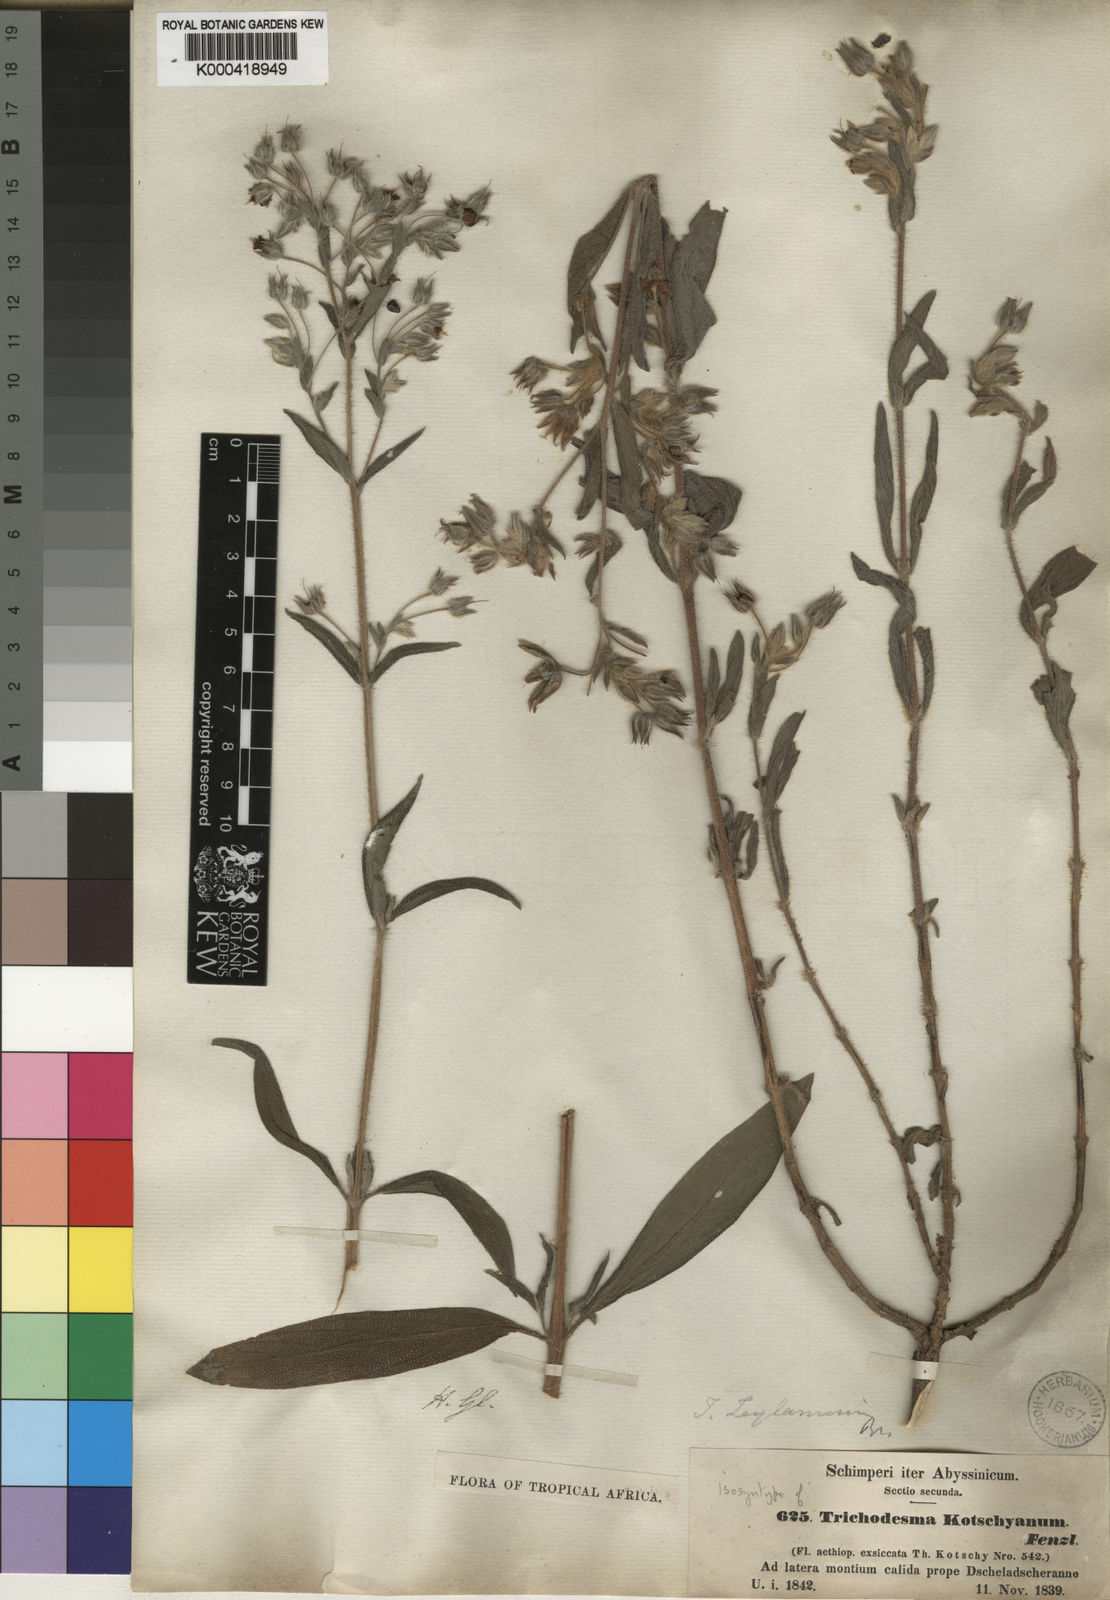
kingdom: Plantae
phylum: Tracheophyta
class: Magnoliopsida
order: Boraginales
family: Boraginaceae
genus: Trichodesma
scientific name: Trichodesma zeylanicum
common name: Camelbush
